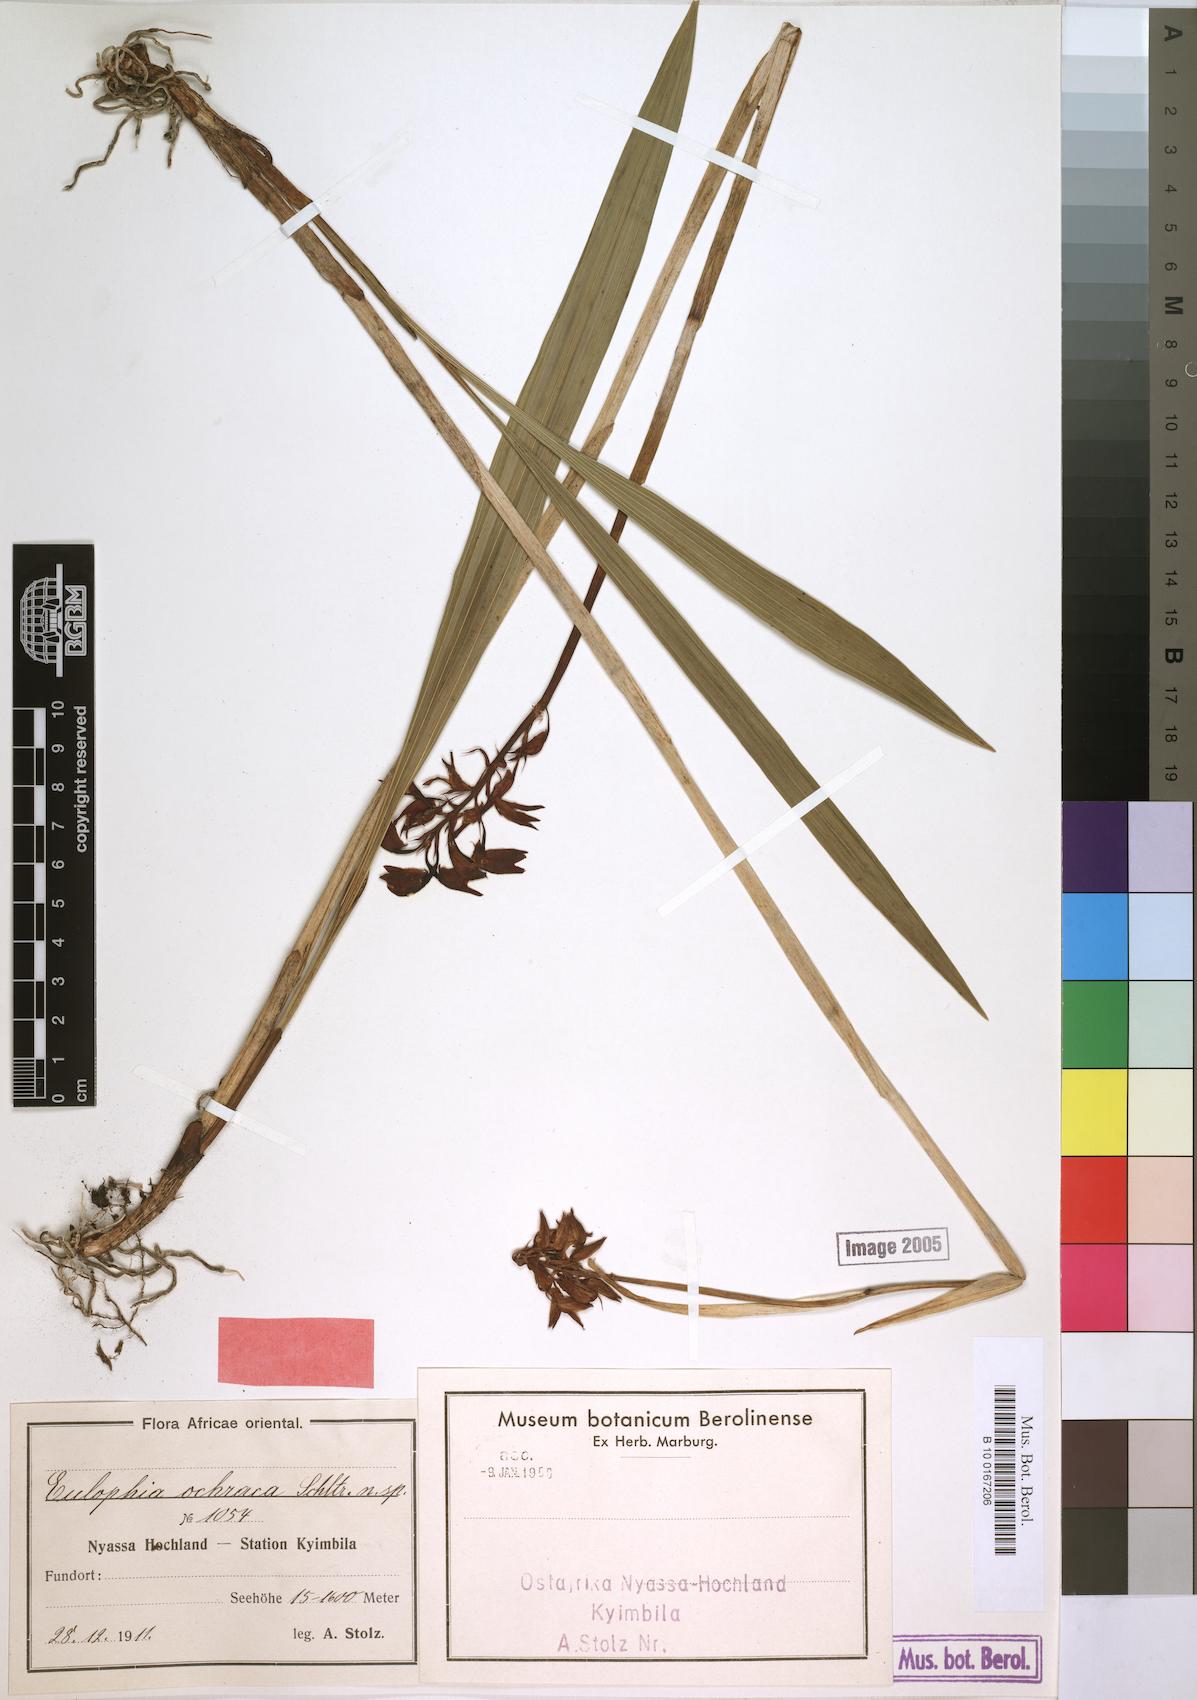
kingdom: Plantae
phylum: Tracheophyta
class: Liliopsida
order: Asparagales
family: Orchidaceae
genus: Eulophia
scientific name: Eulophia odontoglossa
